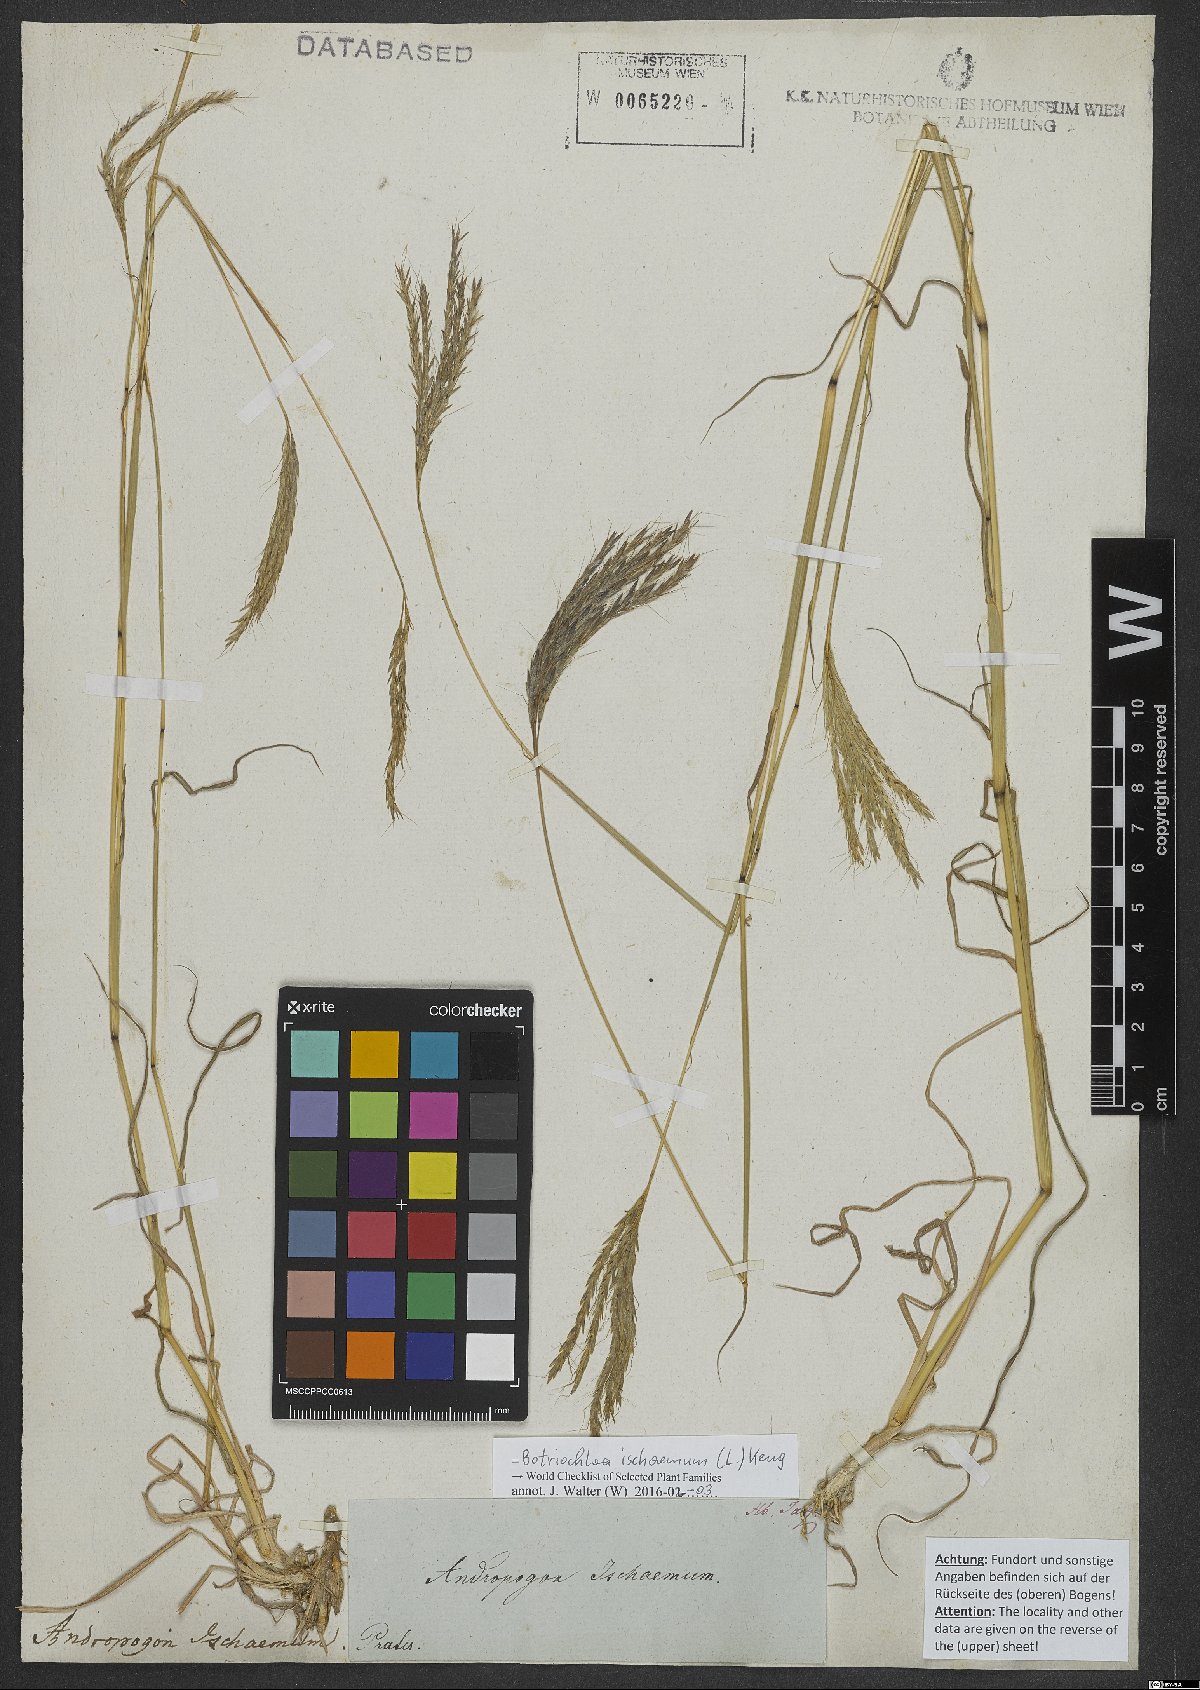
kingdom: Plantae
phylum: Tracheophyta
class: Liliopsida
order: Poales
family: Poaceae
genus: Bothriochloa
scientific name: Bothriochloa ischaemum
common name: Yellow bluestem
